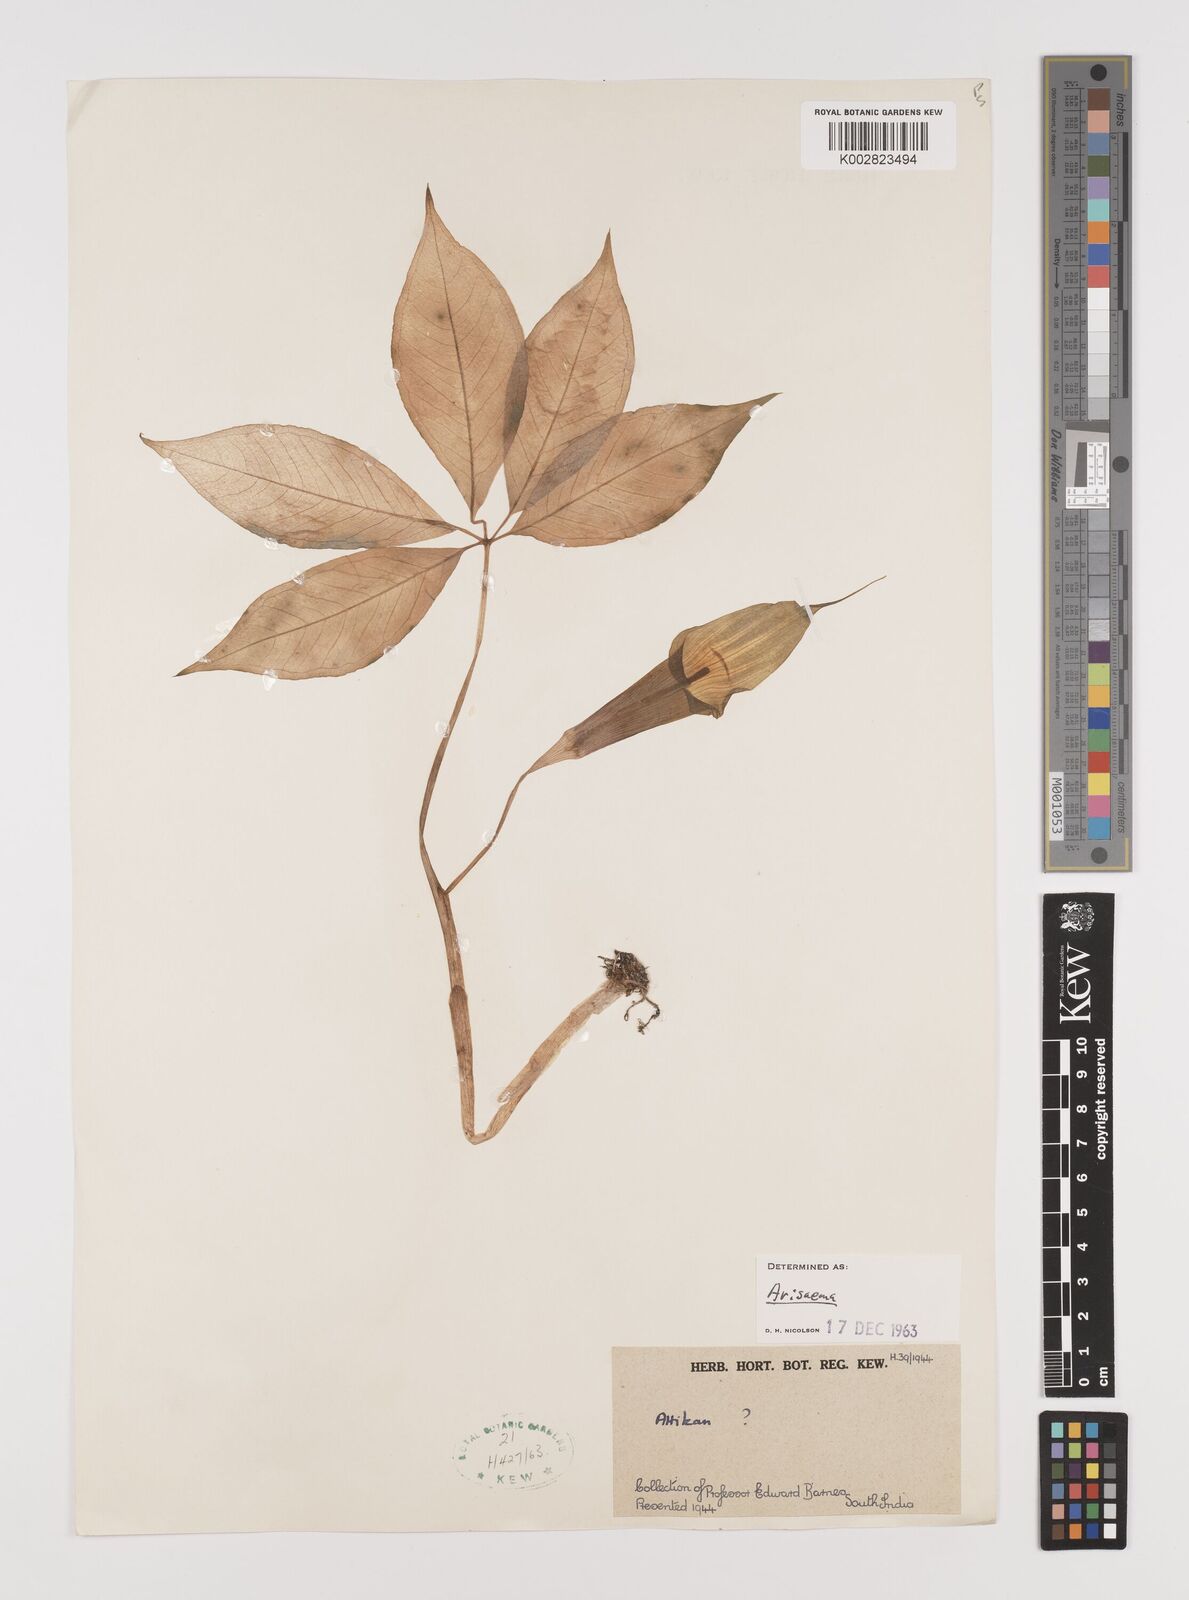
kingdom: Plantae
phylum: Tracheophyta
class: Liliopsida
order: Alismatales
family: Araceae
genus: Arisaema
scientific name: Arisaema
